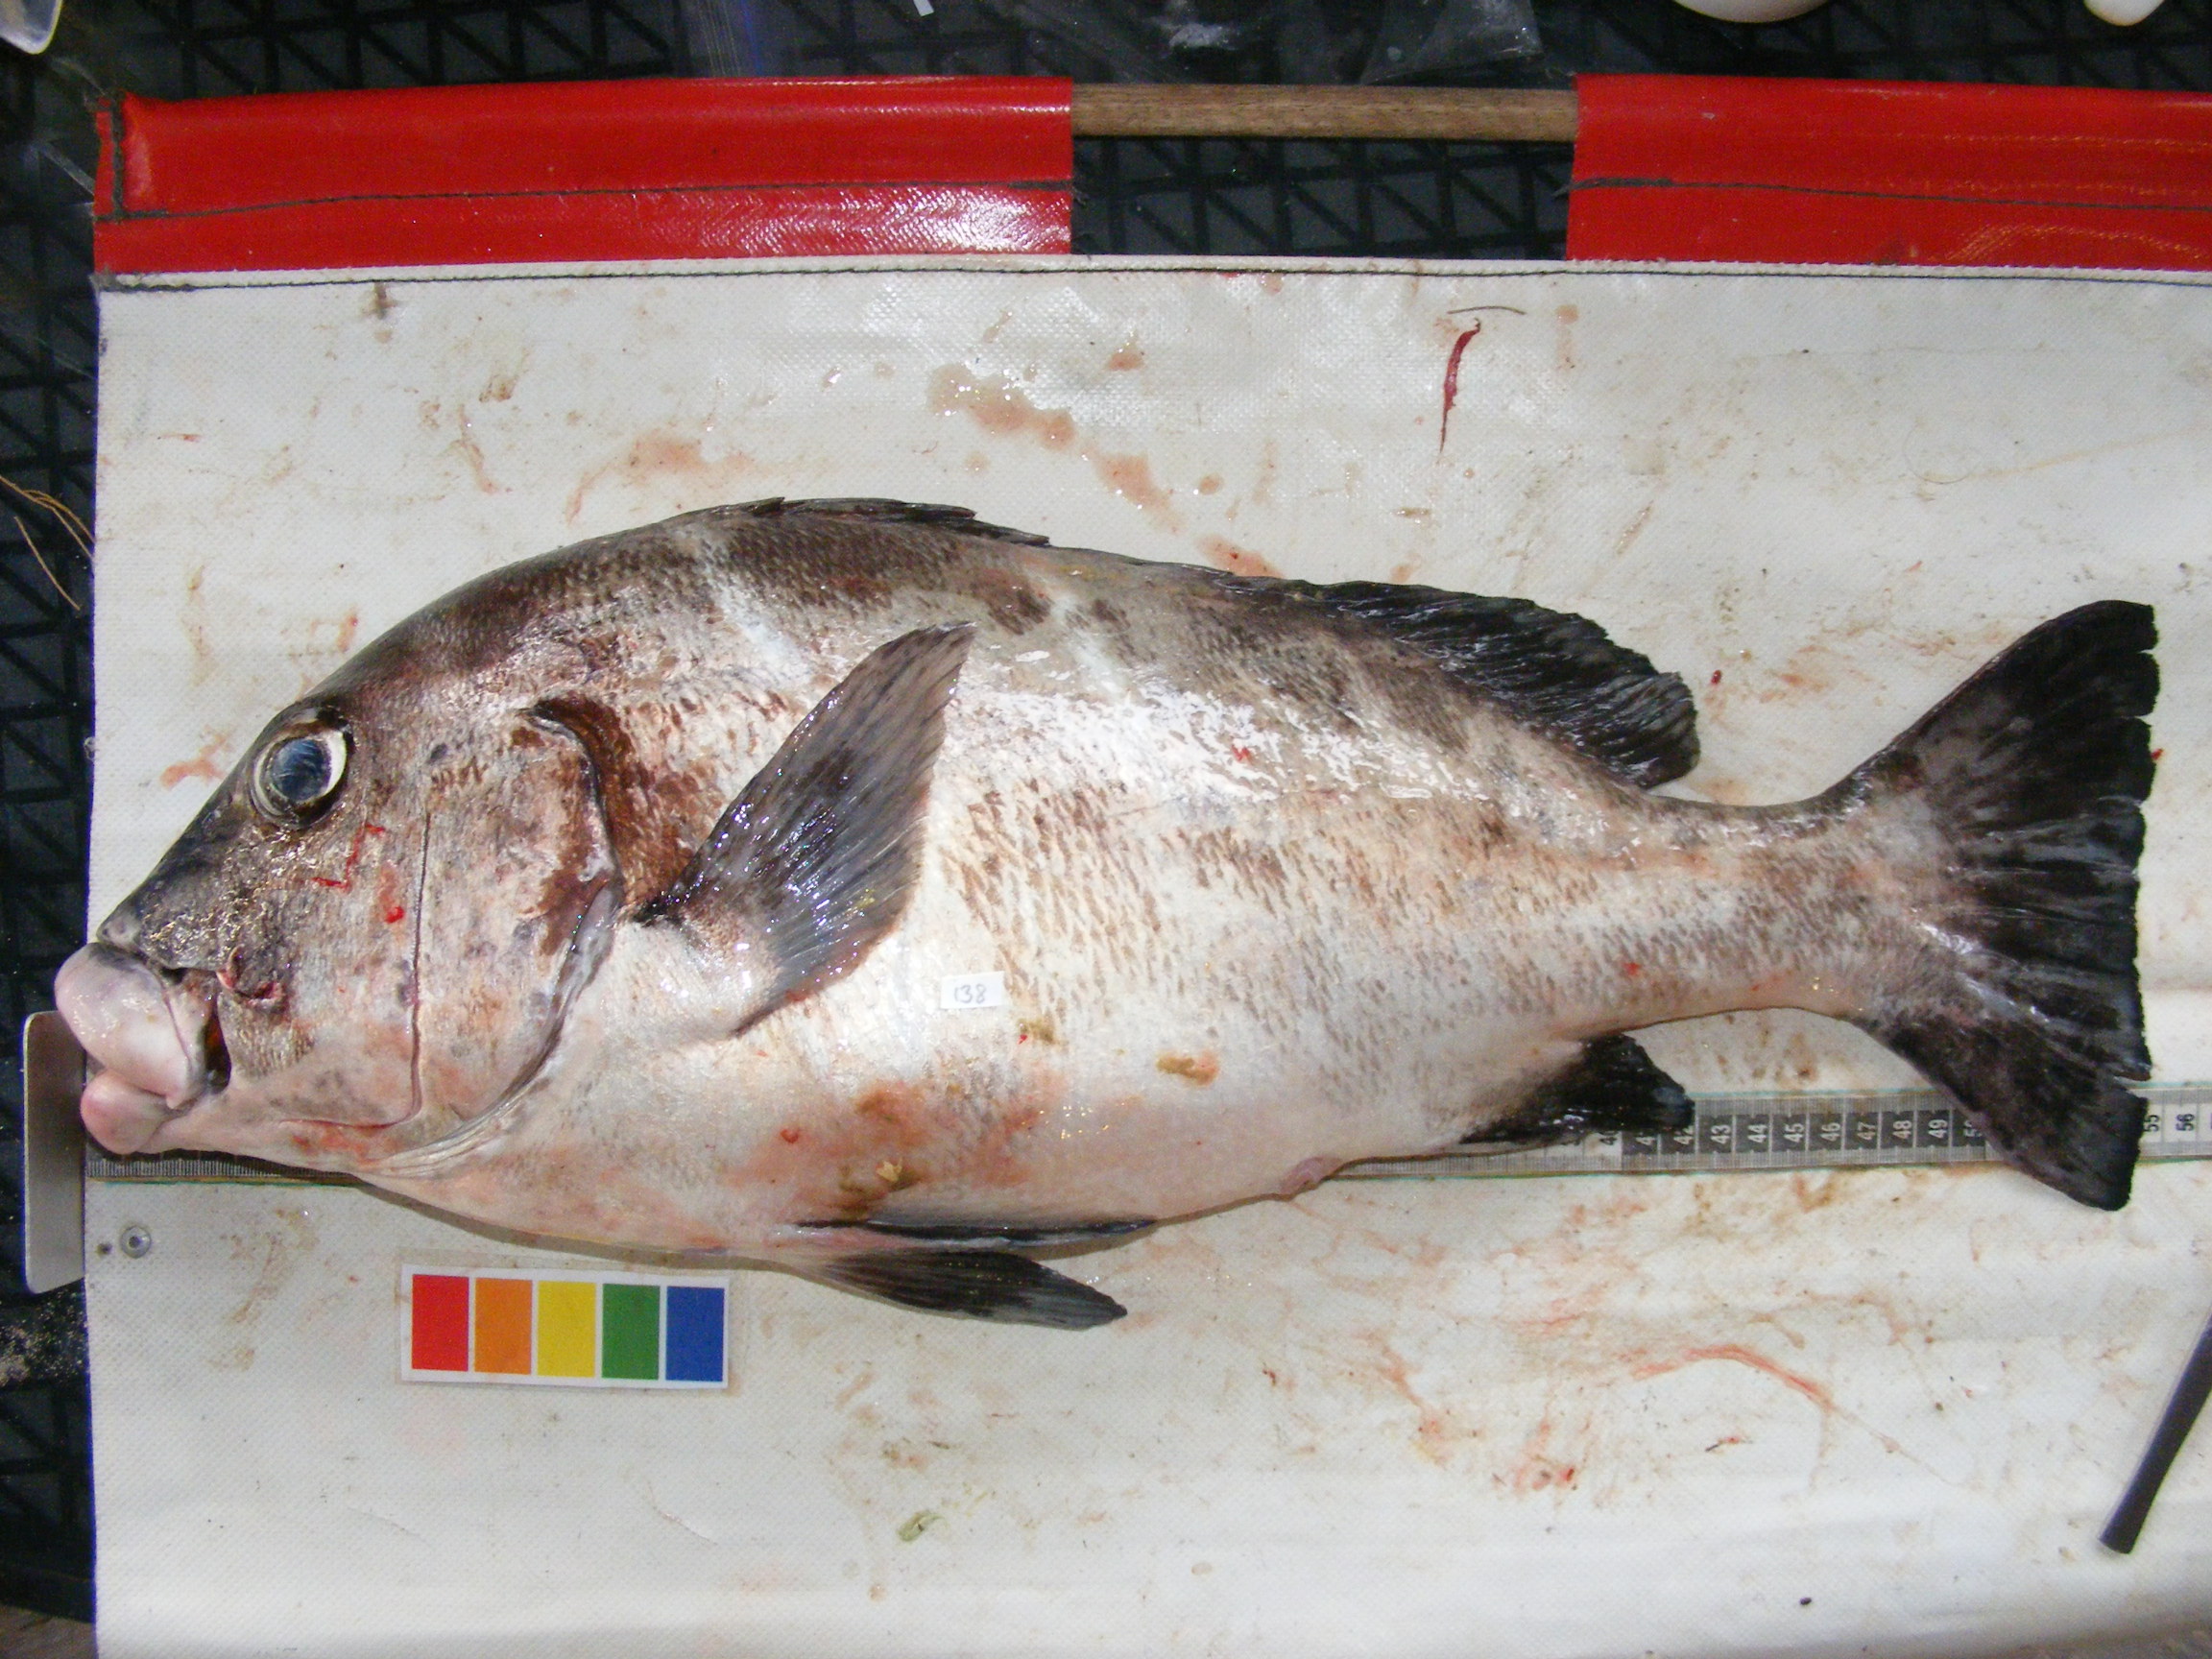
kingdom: Animalia
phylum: Chordata
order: Perciformes
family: Haemulidae
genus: Plectorhinchus
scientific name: Plectorhinchus playfairi
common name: Whitebarred rubberlip
